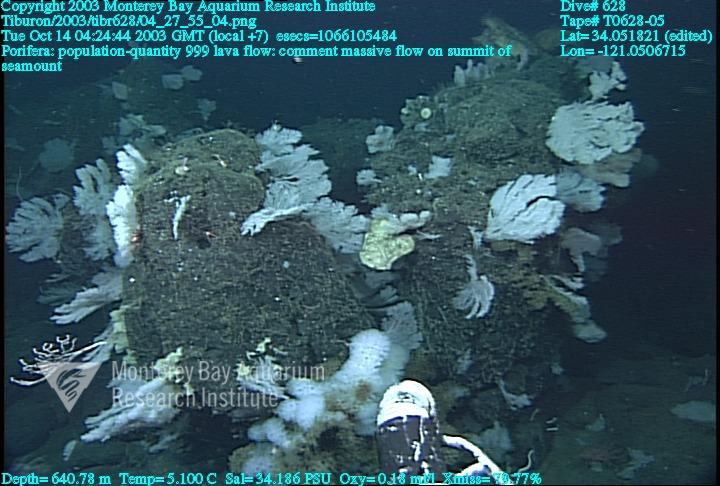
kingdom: Animalia
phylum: Porifera
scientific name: Porifera
